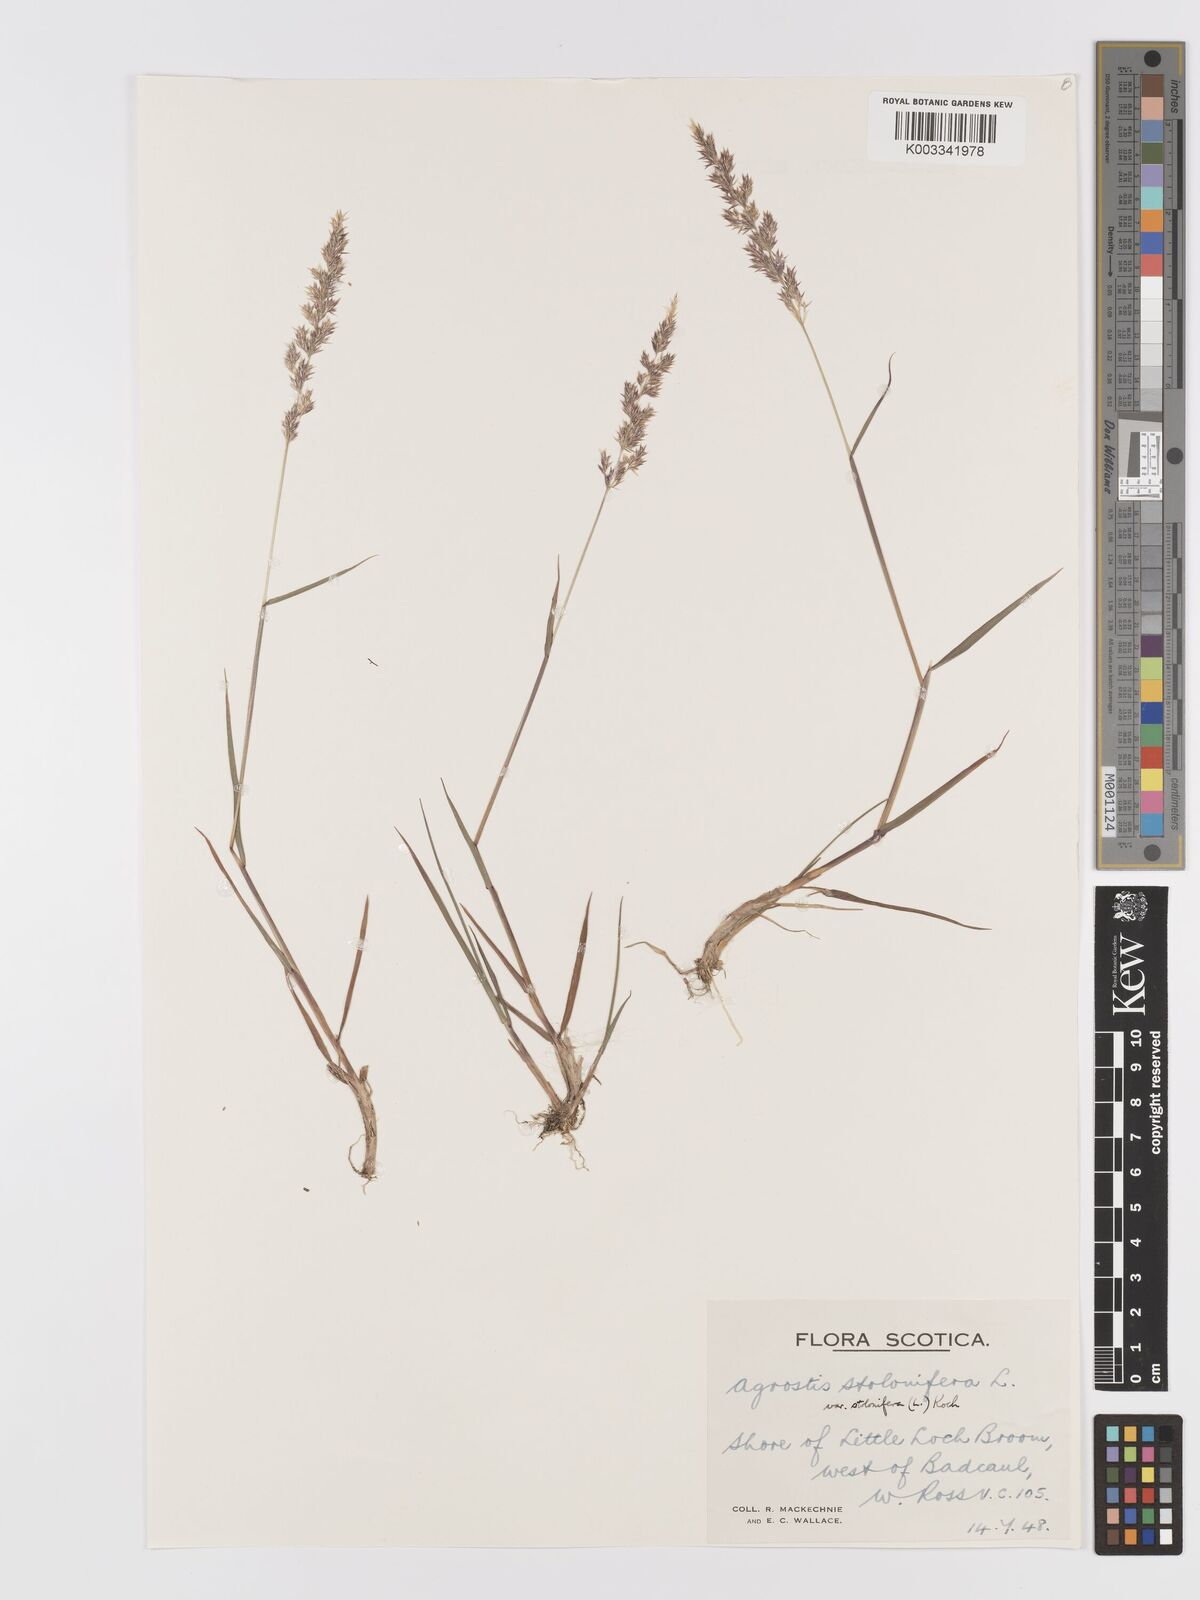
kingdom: Plantae
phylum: Tracheophyta
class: Liliopsida
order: Poales
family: Poaceae
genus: Agrostis
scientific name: Agrostis stolonifera
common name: Creeping bentgrass
